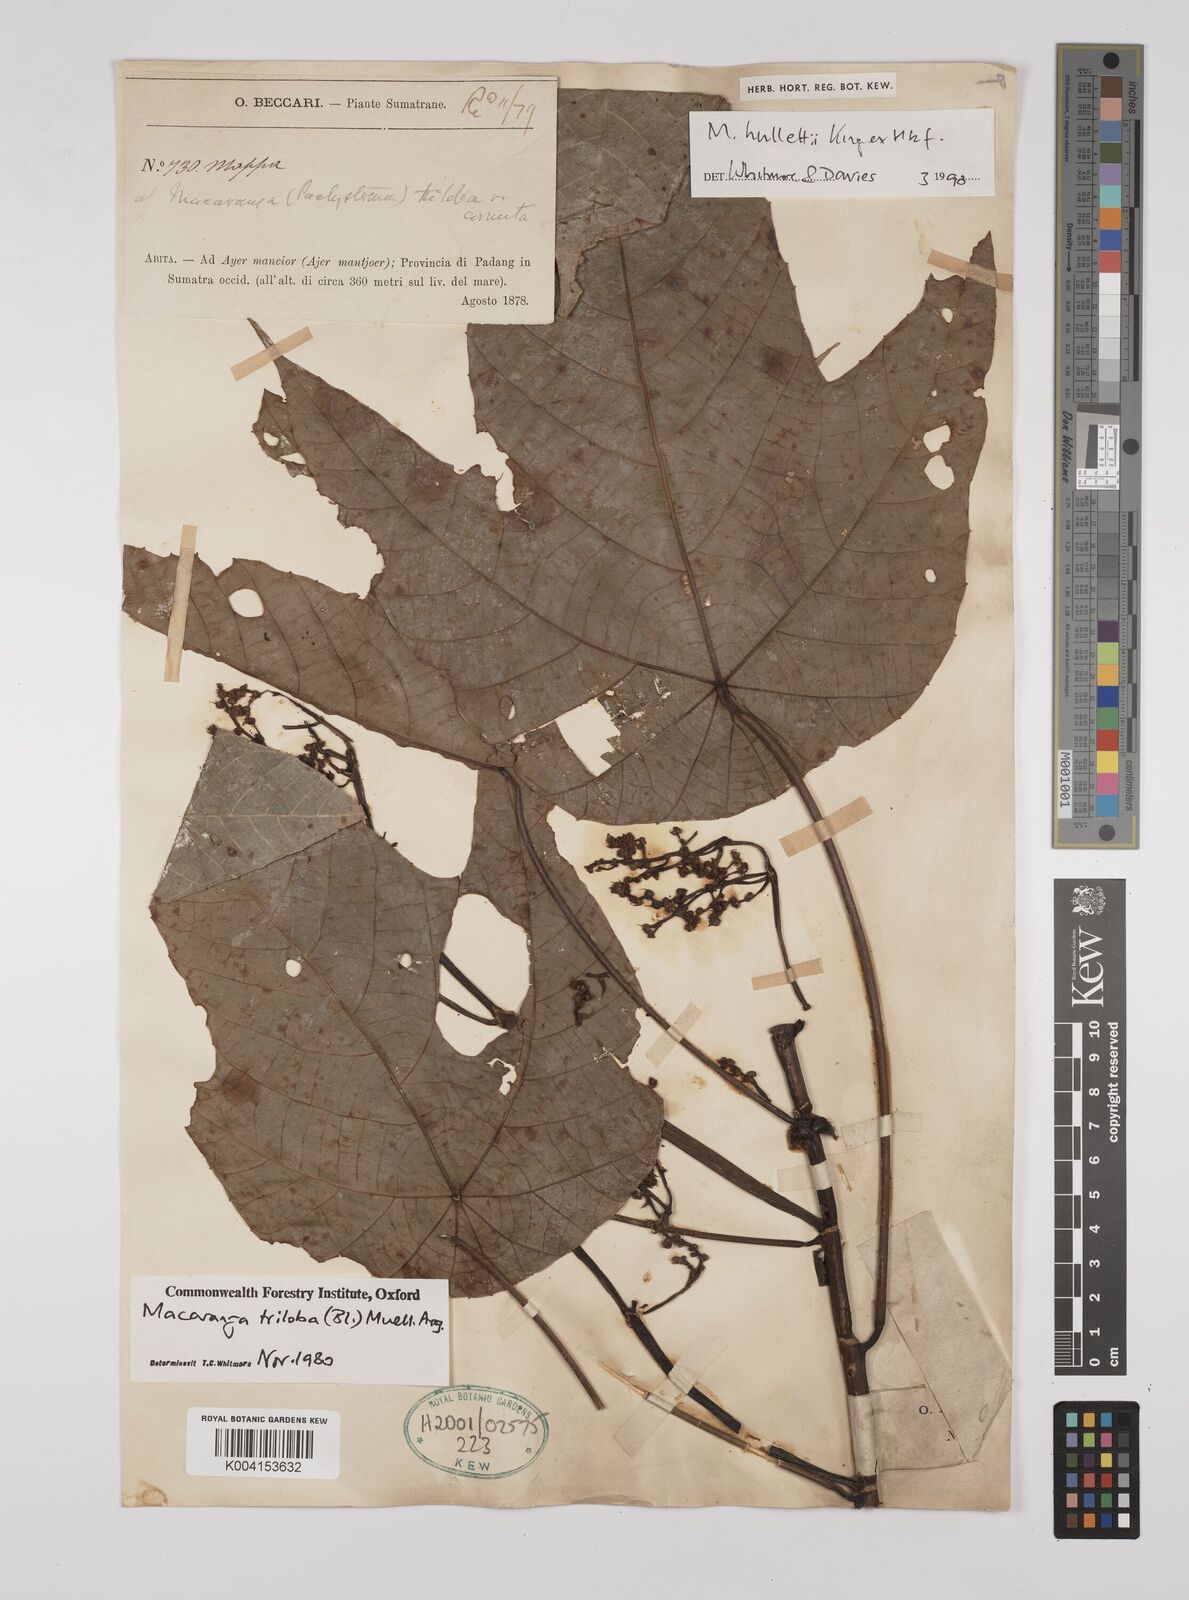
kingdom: Plantae
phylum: Tracheophyta
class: Magnoliopsida
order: Malpighiales
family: Euphorbiaceae
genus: Macaranga
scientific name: Macaranga triloba
